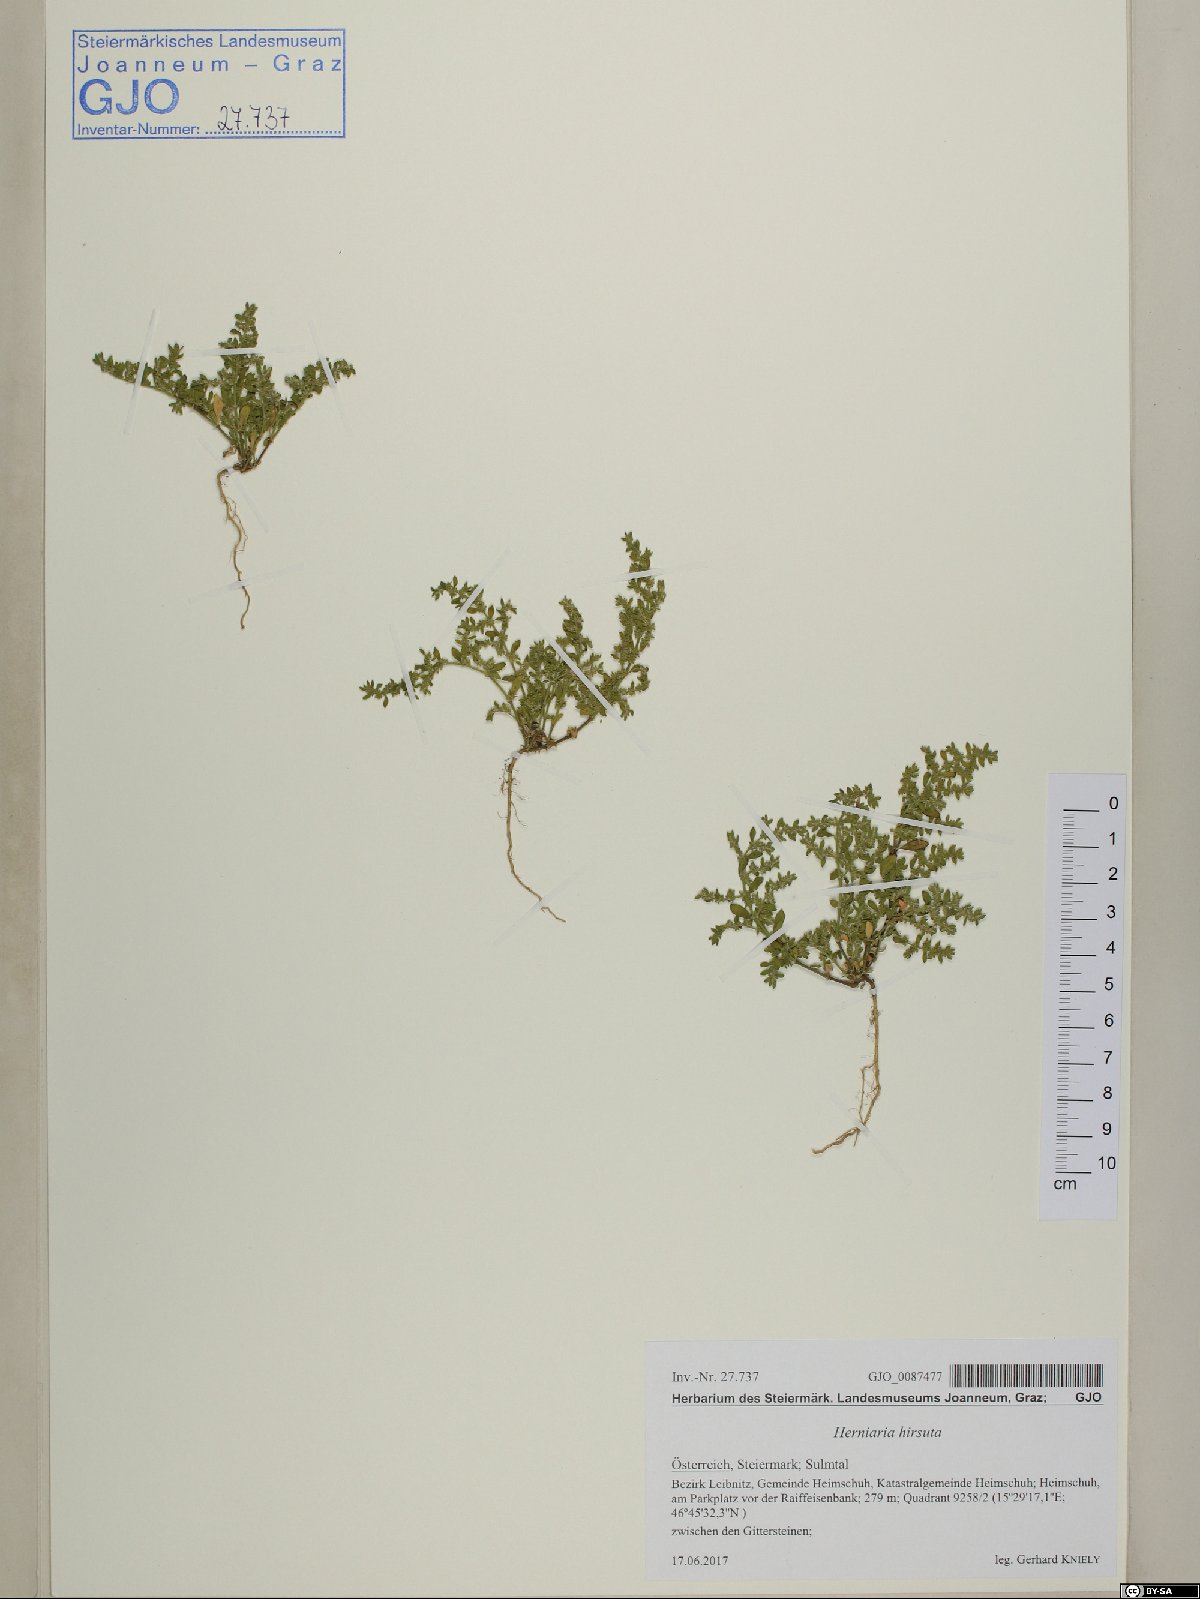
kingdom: Plantae
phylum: Tracheophyta
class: Magnoliopsida
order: Caryophyllales
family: Caryophyllaceae
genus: Herniaria
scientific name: Herniaria hirsuta
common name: Hairy rupturewort
